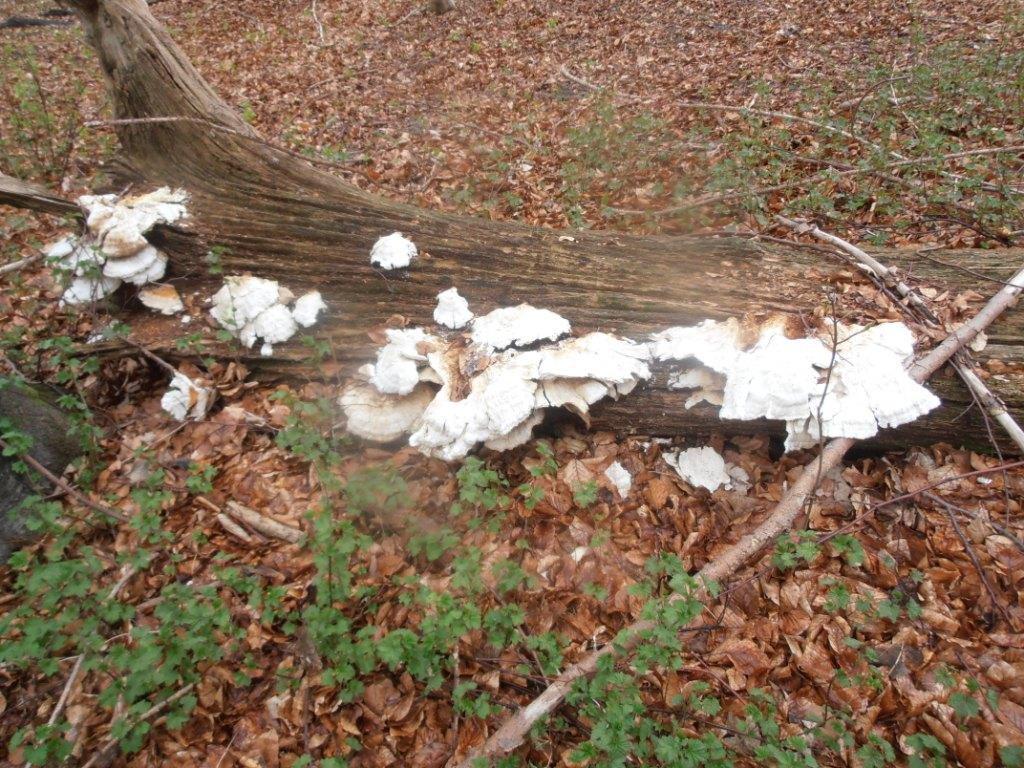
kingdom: Fungi
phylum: Basidiomycota
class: Agaricomycetes
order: Polyporales
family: Laetiporaceae
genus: Laetiporus
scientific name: Laetiporus sulphureus
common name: svovlporesvamp
